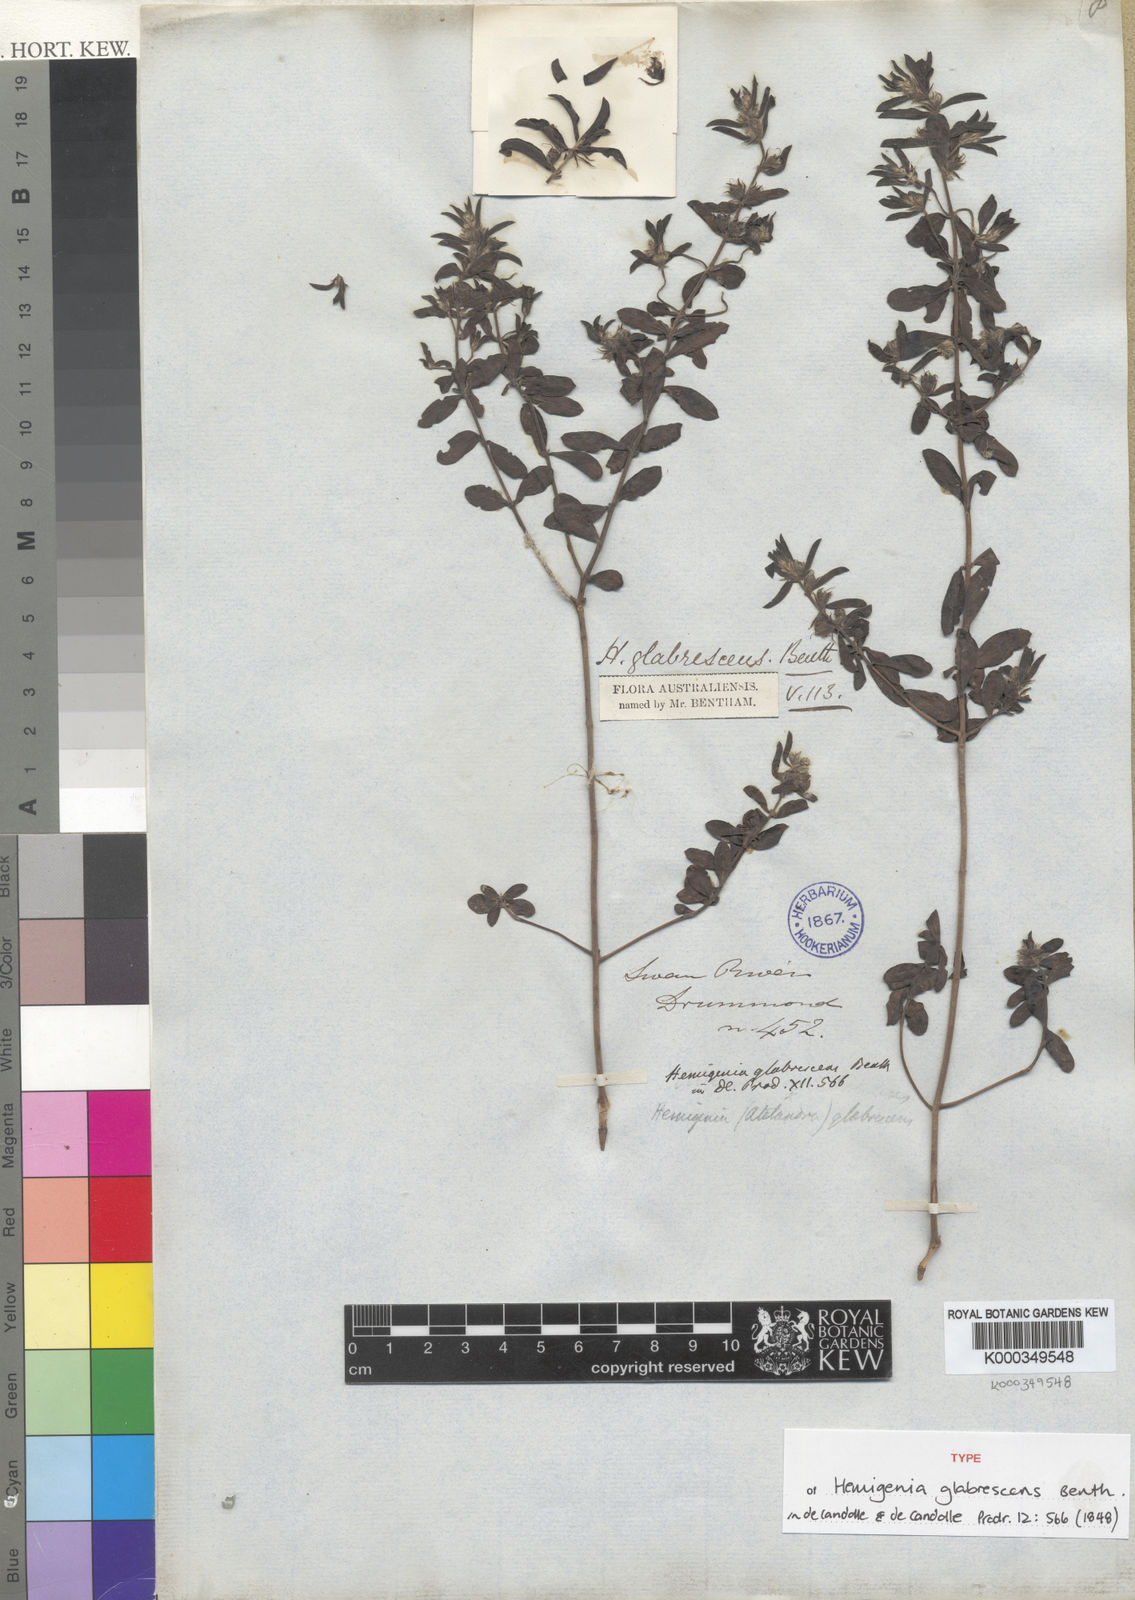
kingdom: Plantae
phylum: Tracheophyta
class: Magnoliopsida
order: Lamiales
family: Lamiaceae
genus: Hemigenia
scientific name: Hemigenia glabrescens
